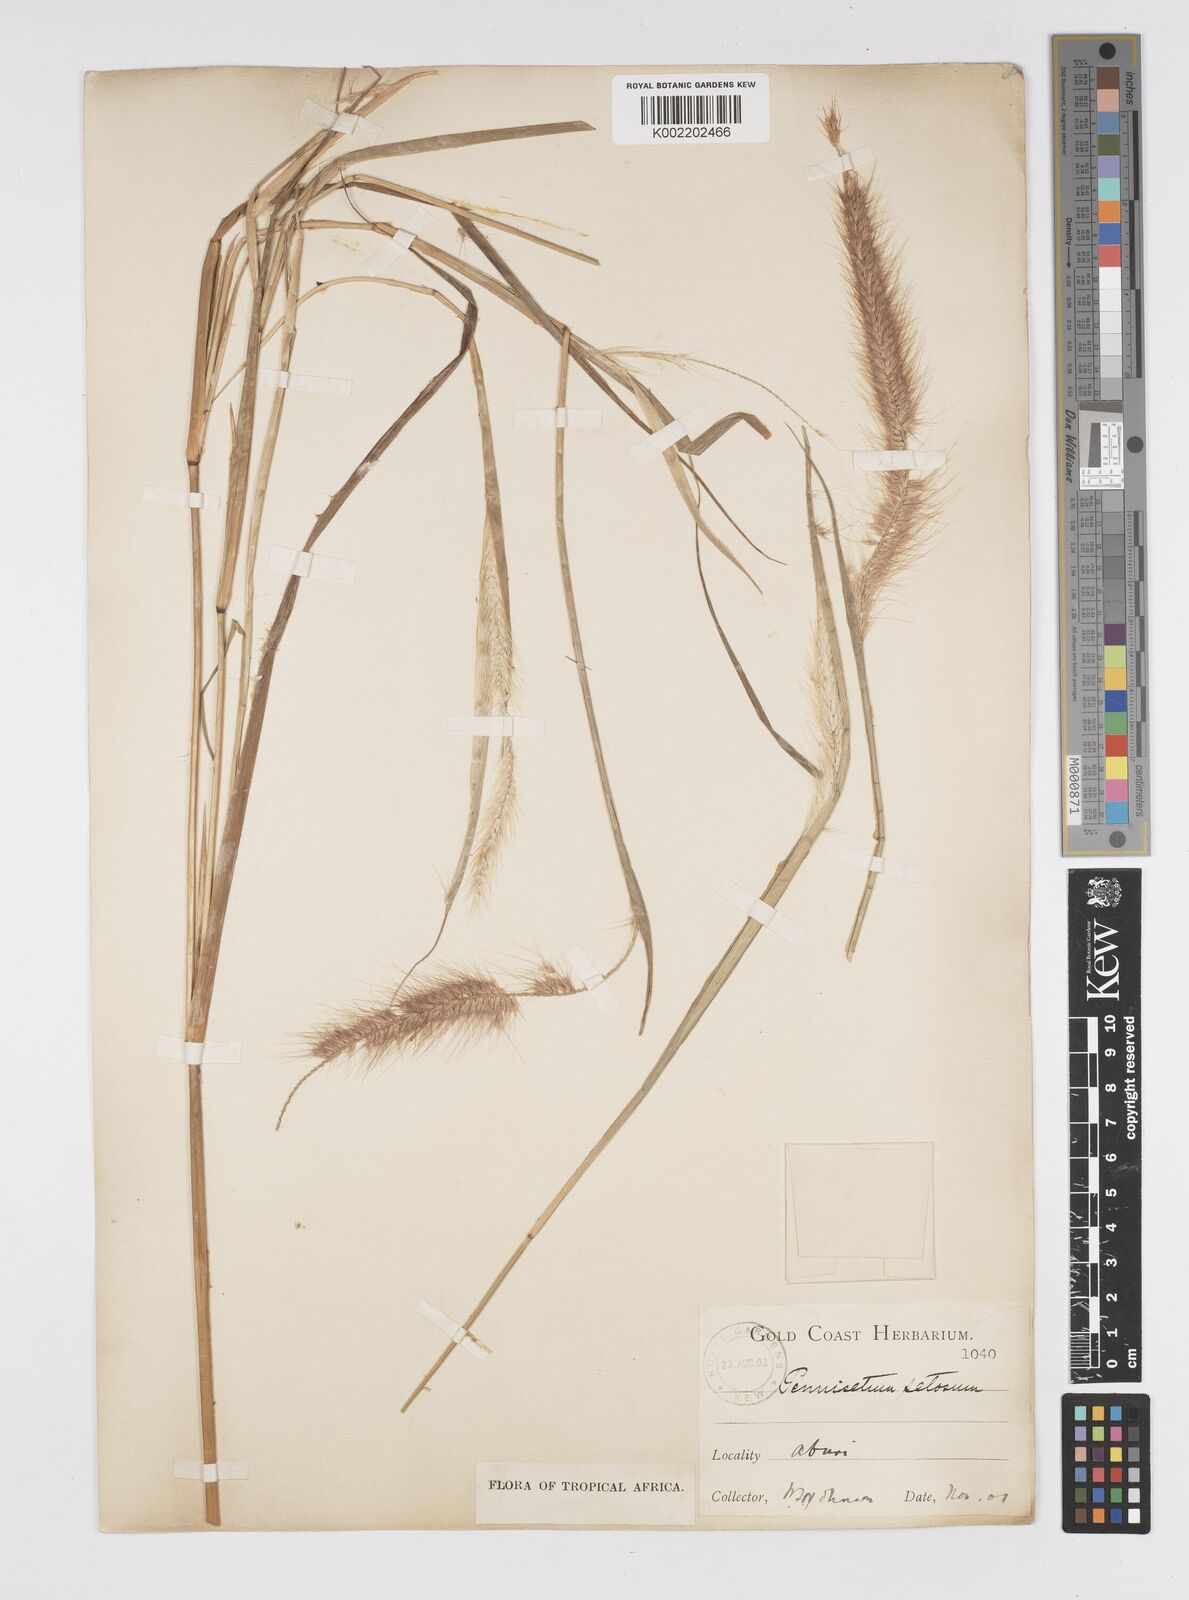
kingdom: Plantae
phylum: Tracheophyta
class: Liliopsida
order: Poales
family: Poaceae
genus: Setaria
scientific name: Setaria parviflora
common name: Knotroot bristle-grass
